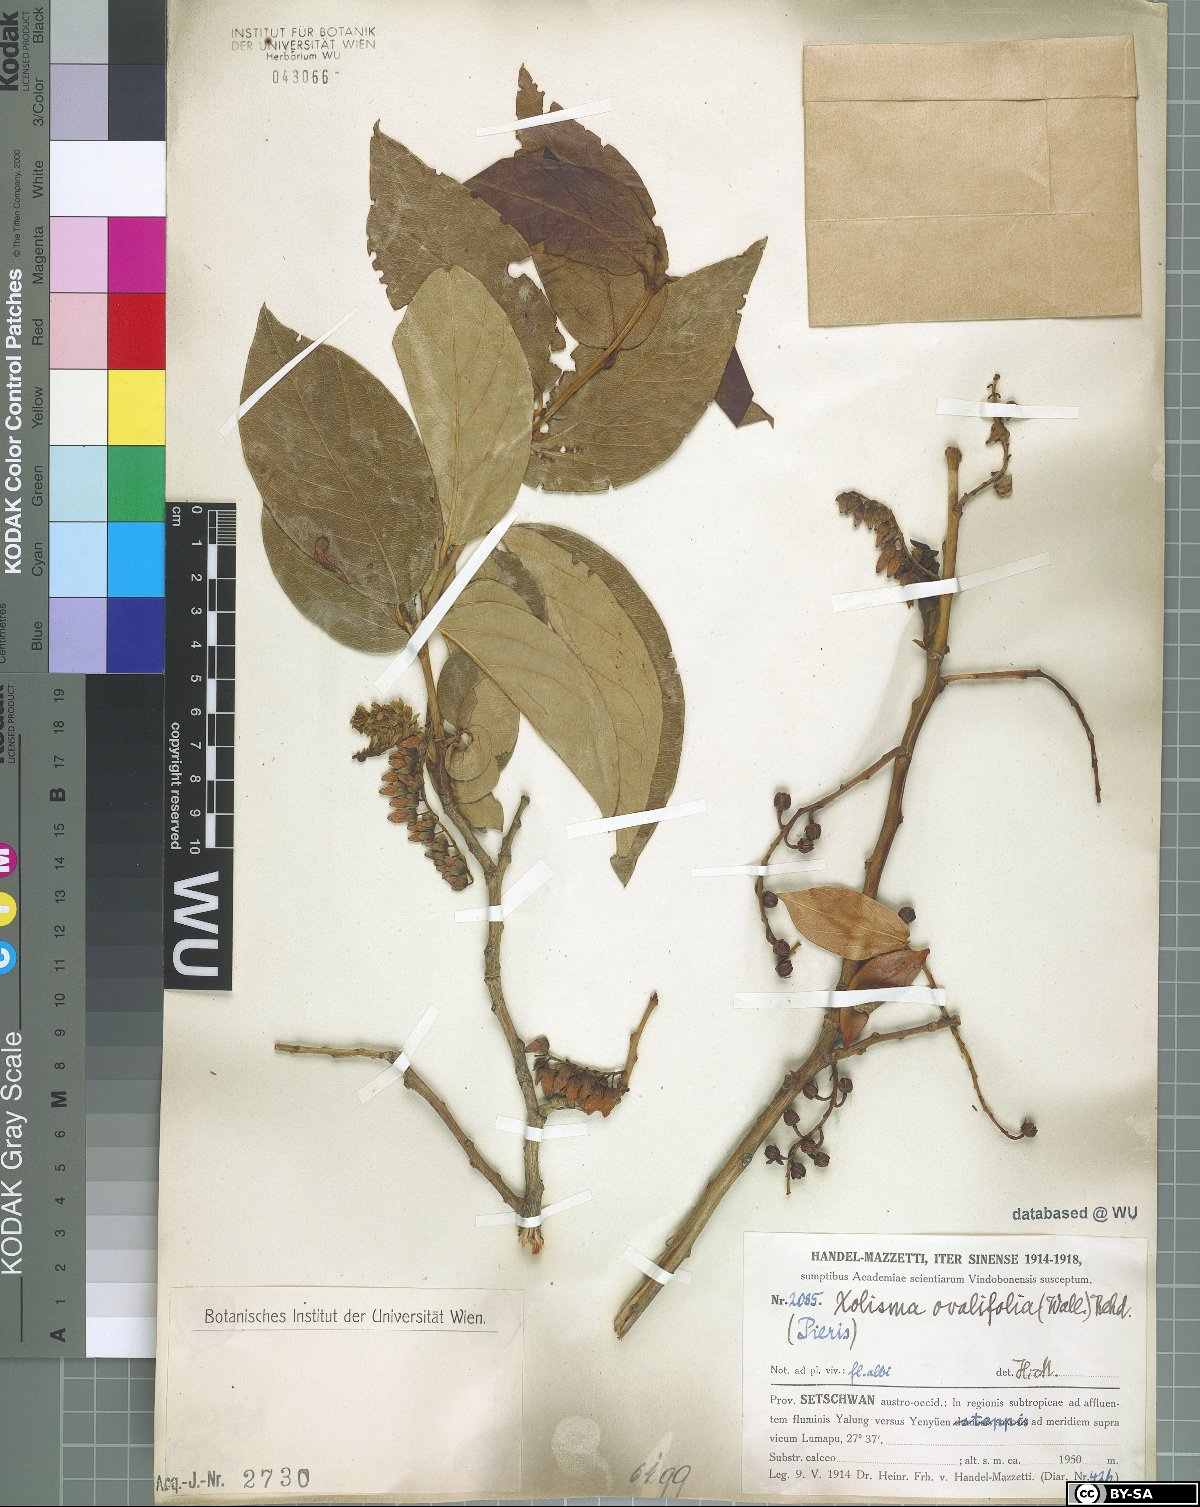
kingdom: Plantae
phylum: Tracheophyta
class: Magnoliopsida
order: Ericales
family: Ericaceae
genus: Lyonia
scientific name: Lyonia ovalifolia
